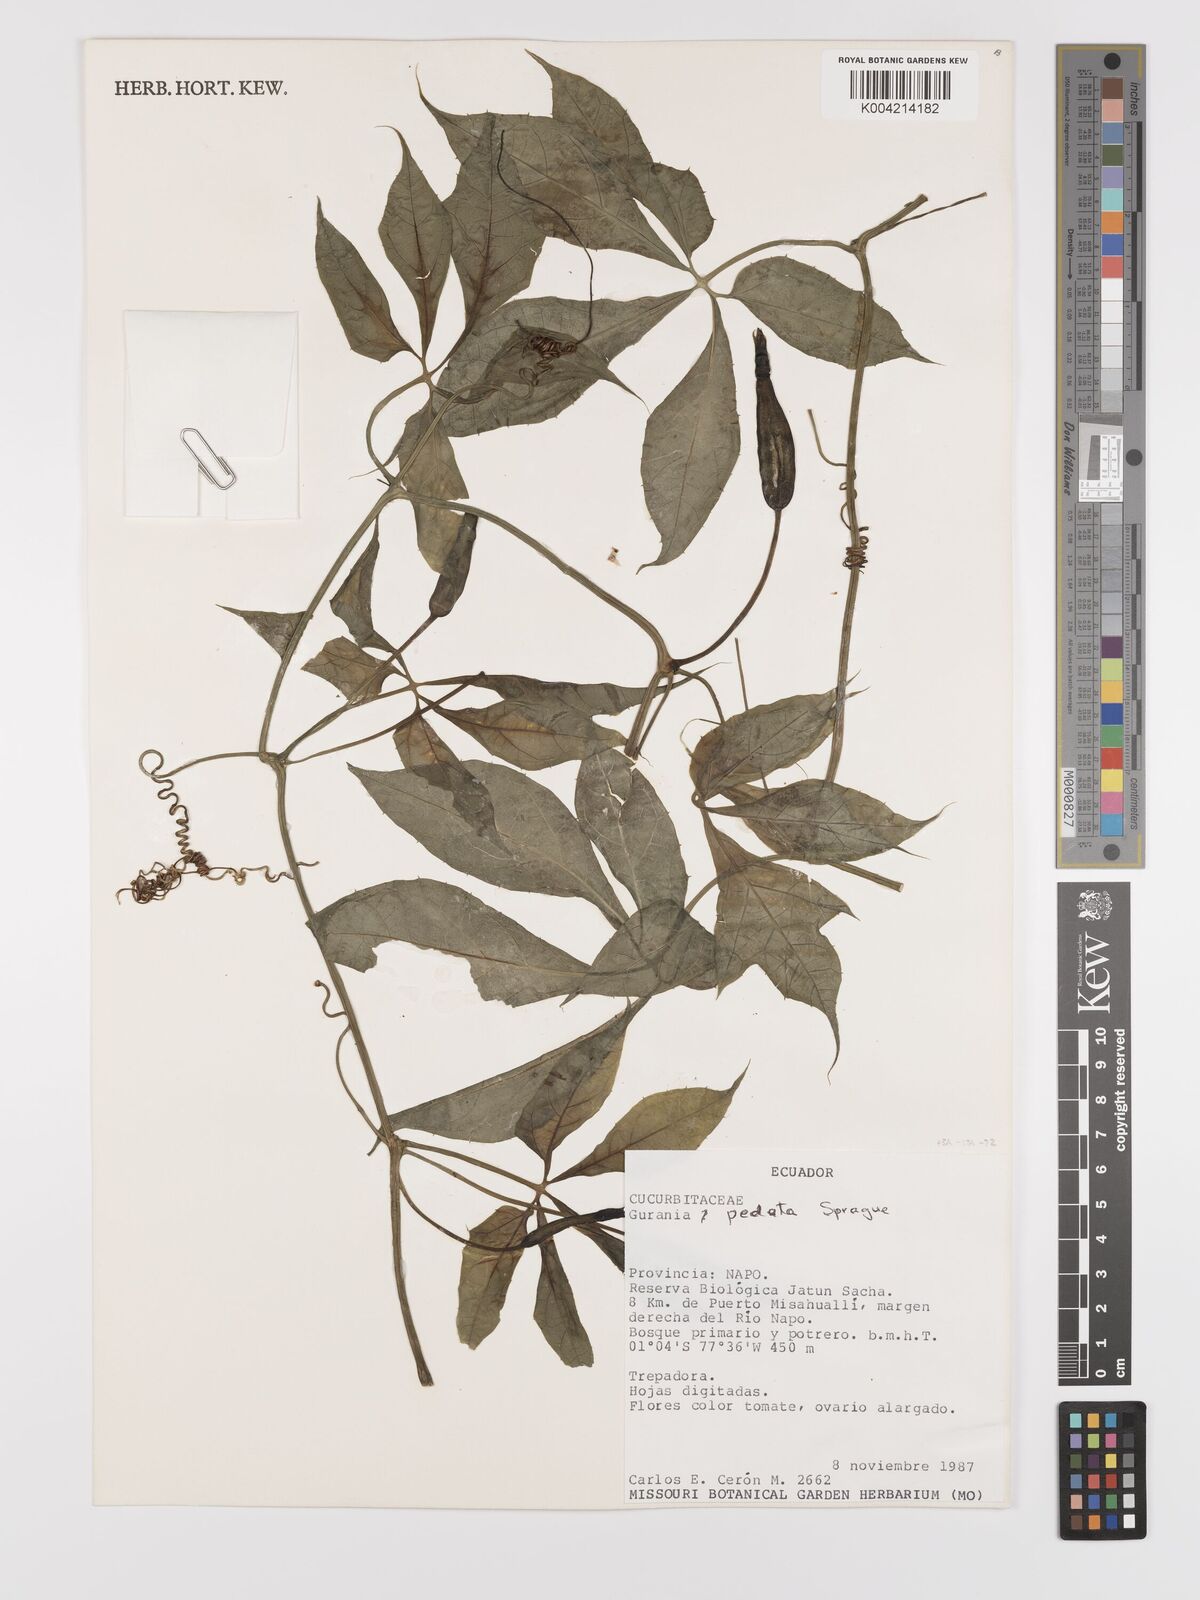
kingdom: Plantae
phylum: Tracheophyta
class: Magnoliopsida
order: Cucurbitales
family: Cucurbitaceae
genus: Gurania
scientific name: Gurania pedata
